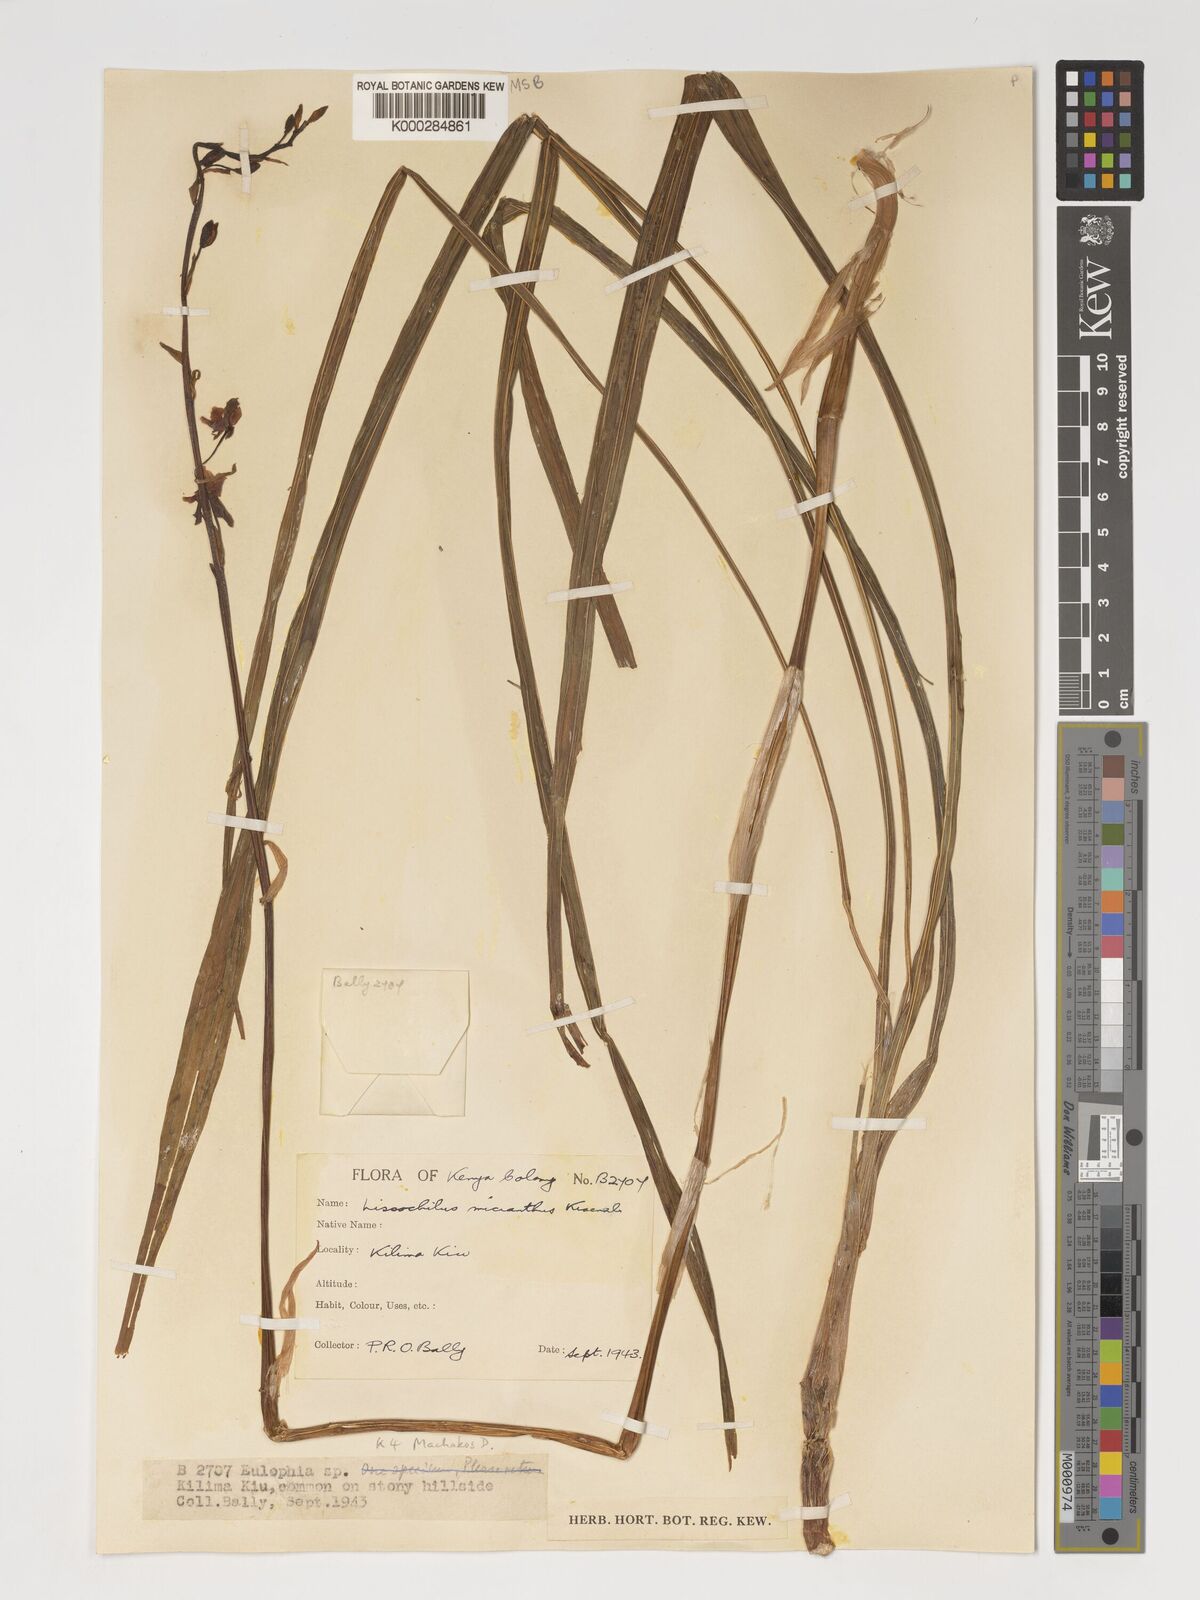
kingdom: Plantae
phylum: Tracheophyta
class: Liliopsida
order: Asparagales
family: Orchidaceae
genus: Eulophia
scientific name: Eulophia streptopetala
